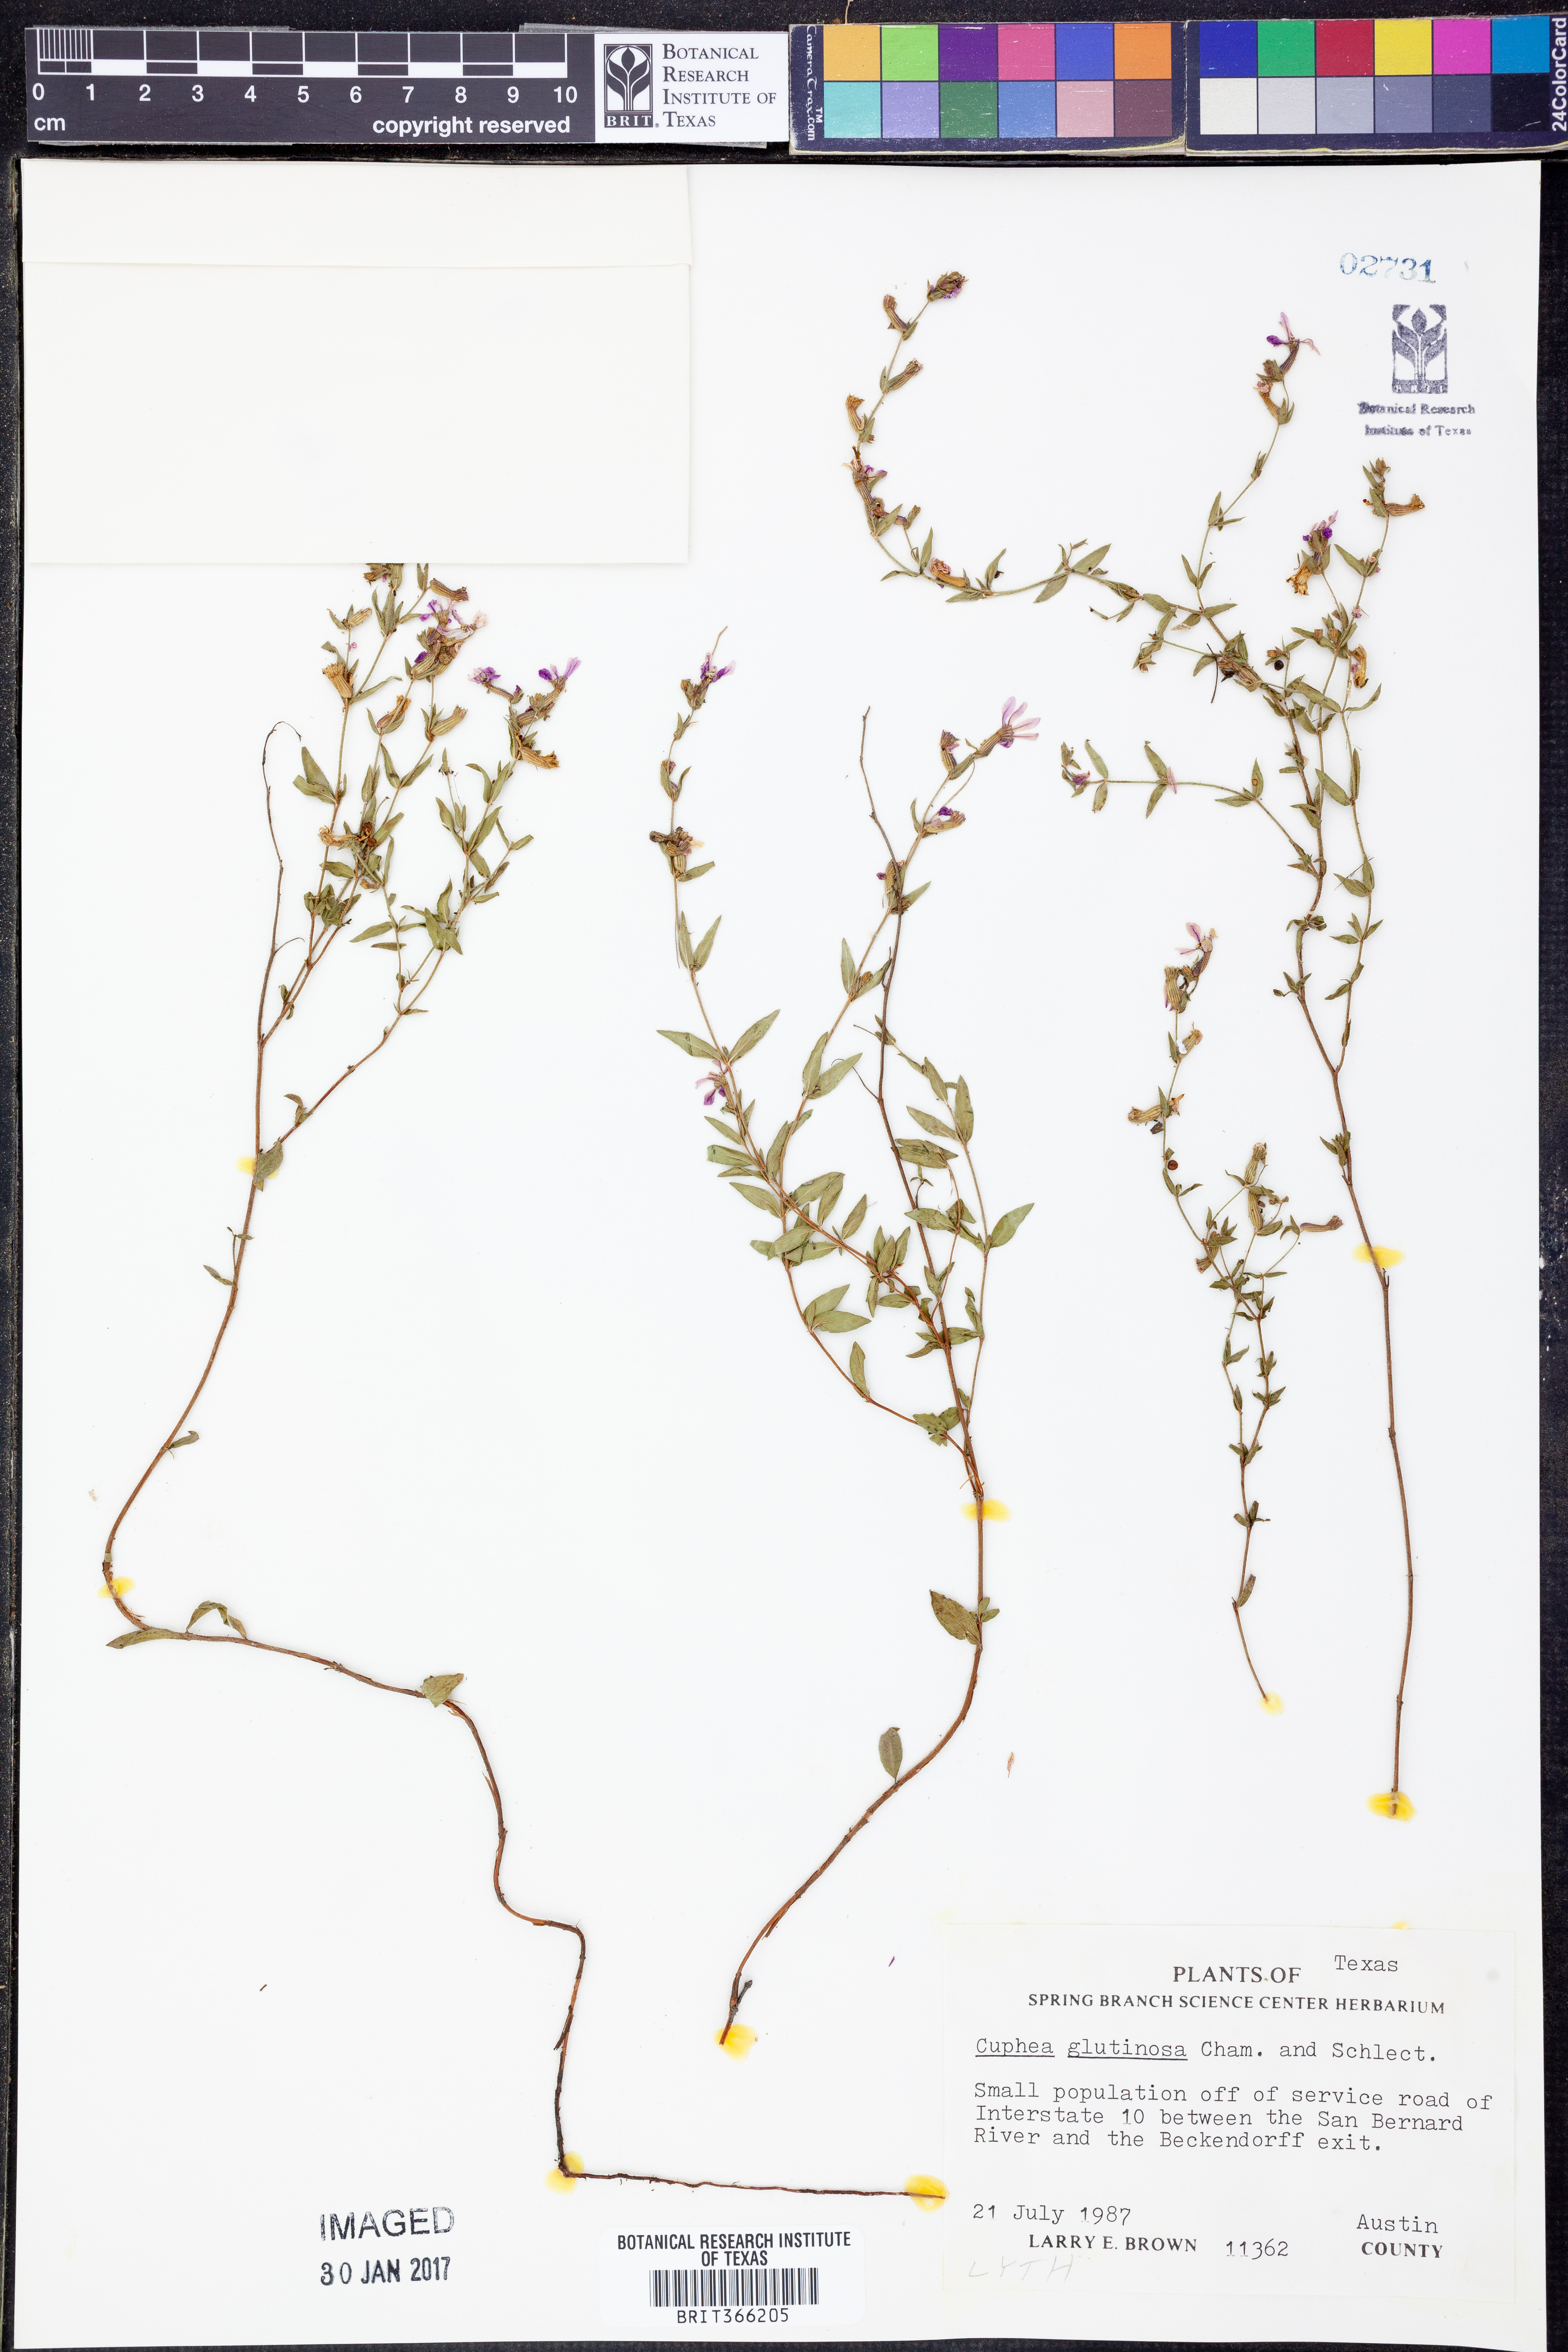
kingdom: Plantae
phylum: Tracheophyta
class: Magnoliopsida
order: Myrtales
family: Lythraceae
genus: Cuphea
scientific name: Cuphea glutinosa
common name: Sticky waxweed
